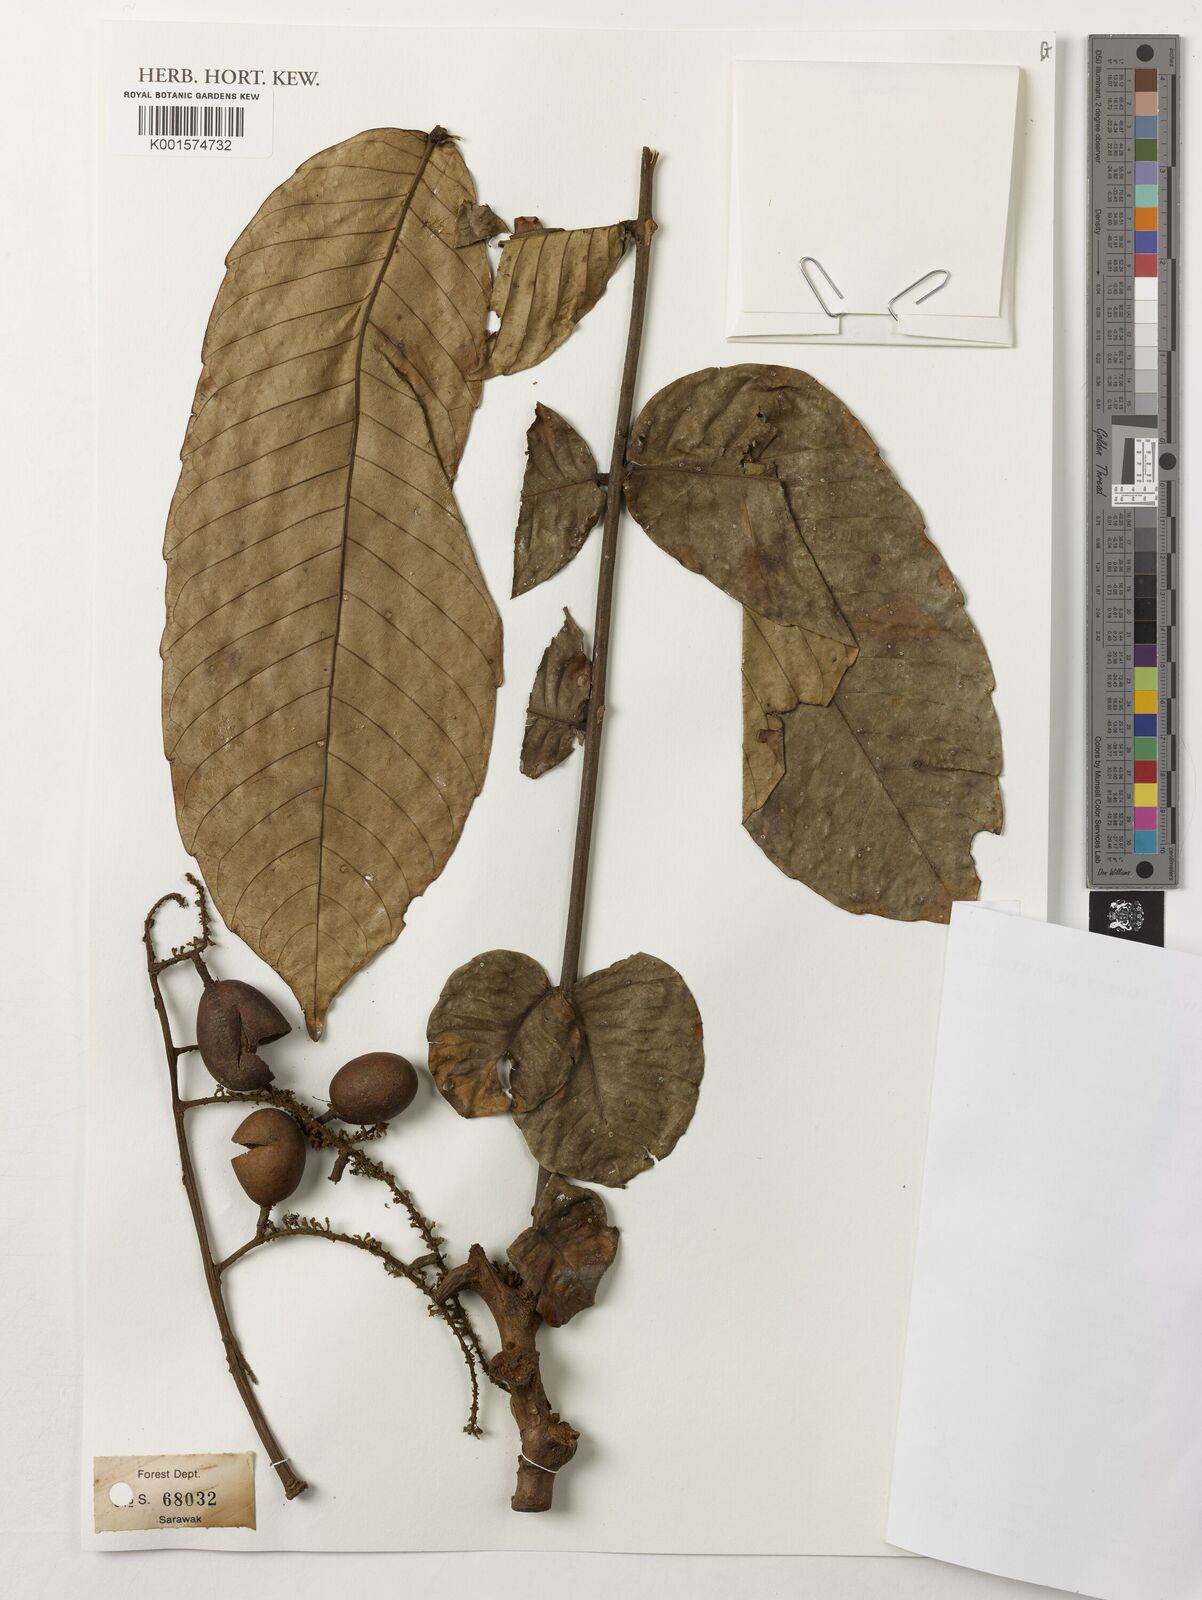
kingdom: Plantae
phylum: Tracheophyta
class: Magnoliopsida
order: Sapindales
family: Sapindaceae
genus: Pometia
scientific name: Pometia pinnata
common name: Oceanic lychee
